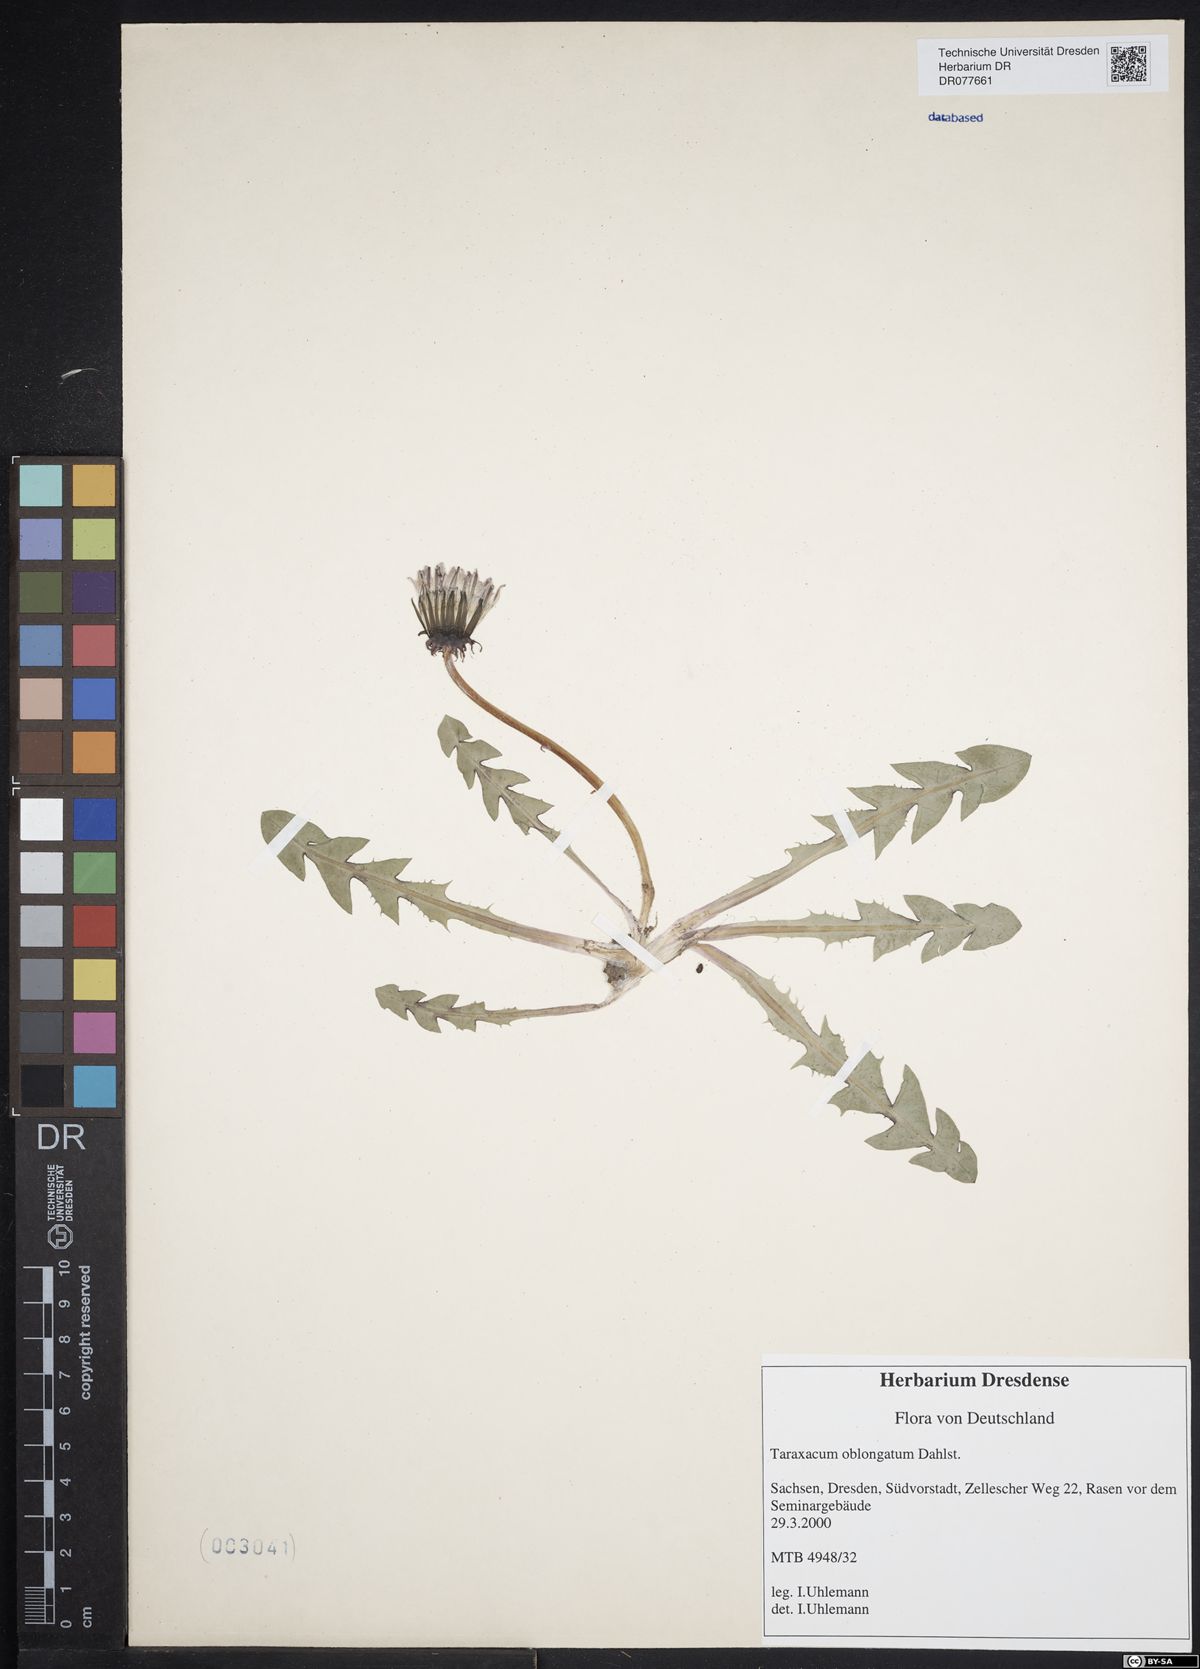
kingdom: Plantae
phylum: Tracheophyta
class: Magnoliopsida
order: Asterales
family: Asteraceae
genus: Taraxacum
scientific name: Taraxacum oblongatum
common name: Oblong-leaved dandelion
